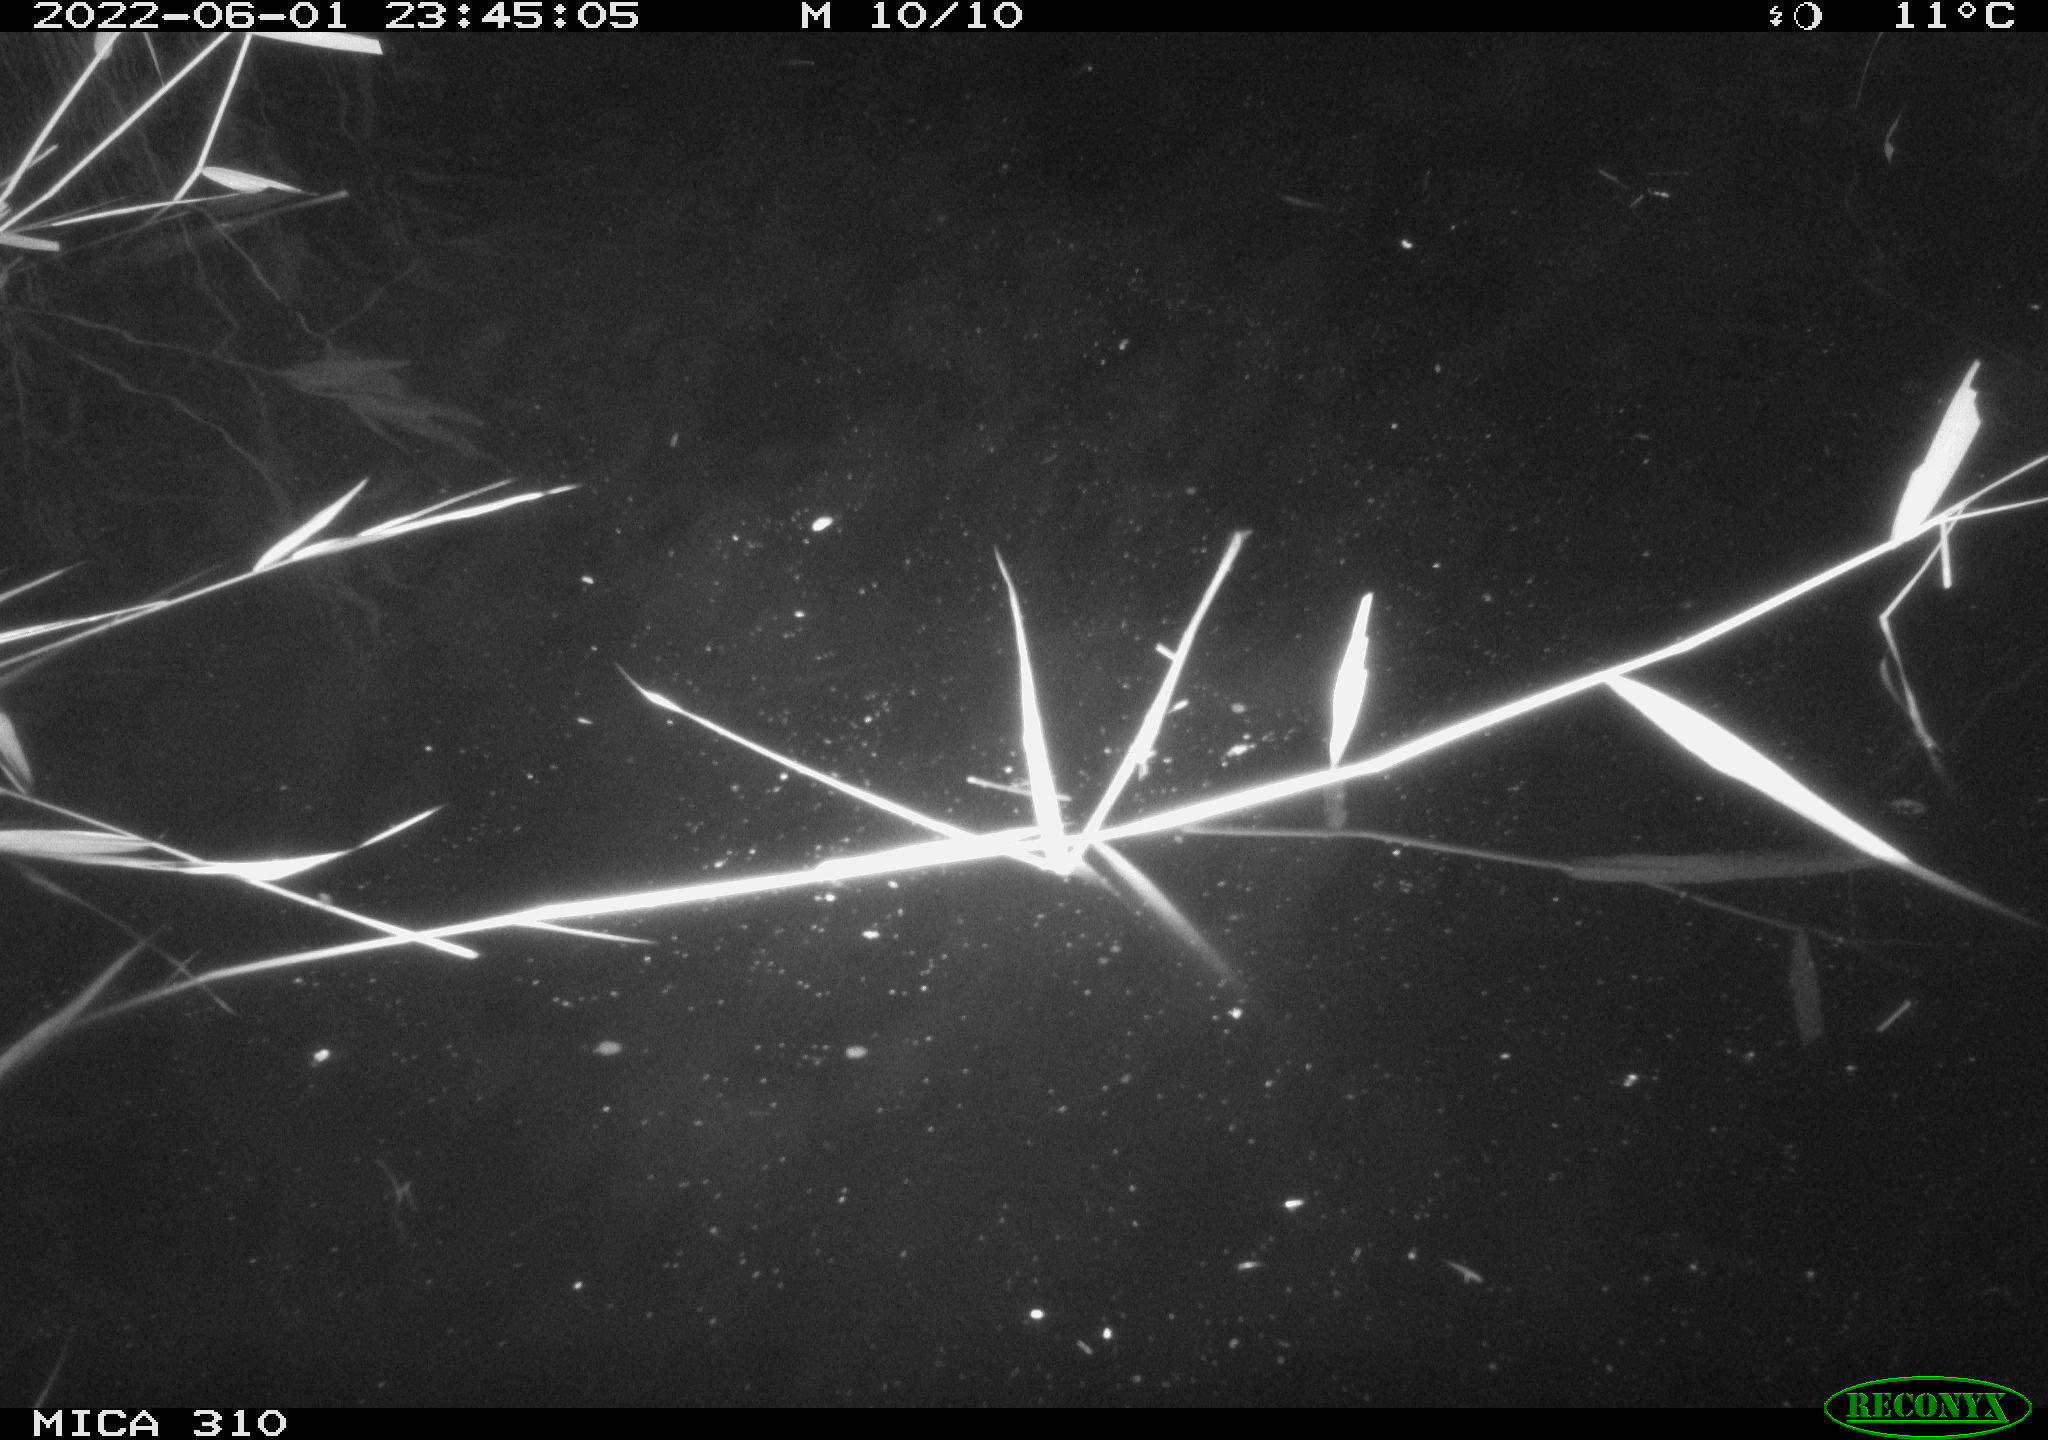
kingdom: Animalia
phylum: Chordata
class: Mammalia
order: Rodentia
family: Muridae
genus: Rattus
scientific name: Rattus norvegicus
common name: Brown rat
